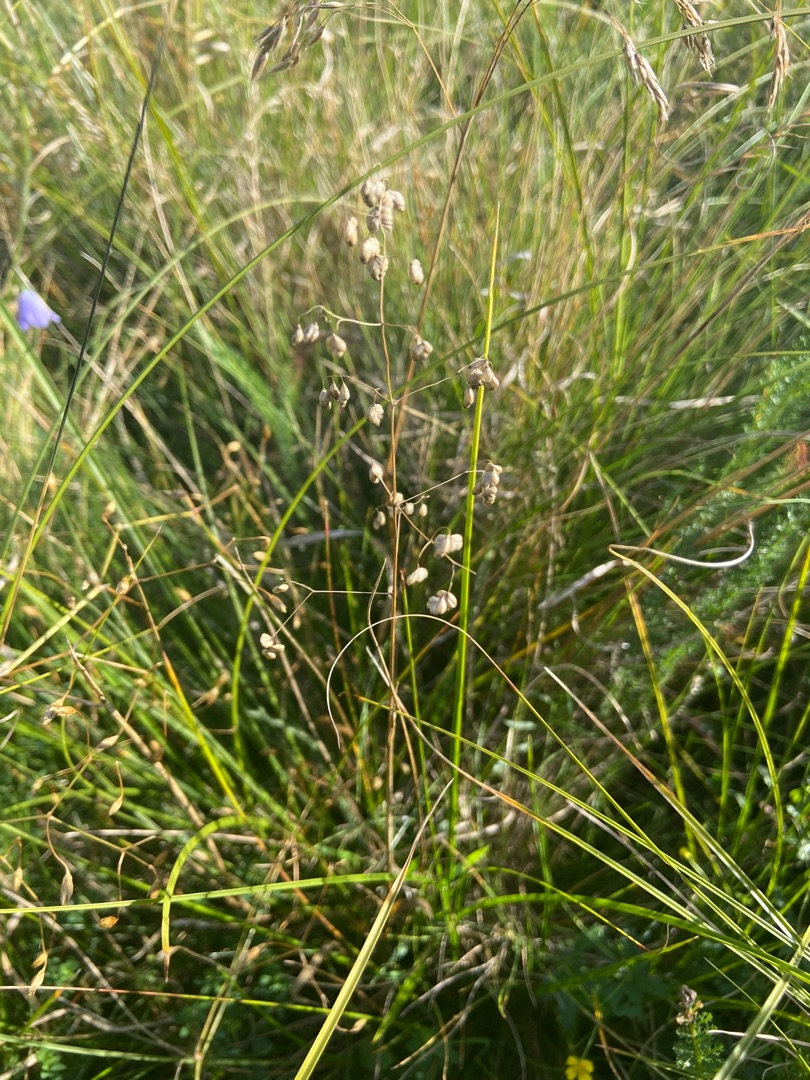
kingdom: Plantae
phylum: Tracheophyta
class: Liliopsida
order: Poales
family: Poaceae
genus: Briza
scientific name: Briza media
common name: Hjertegræs
